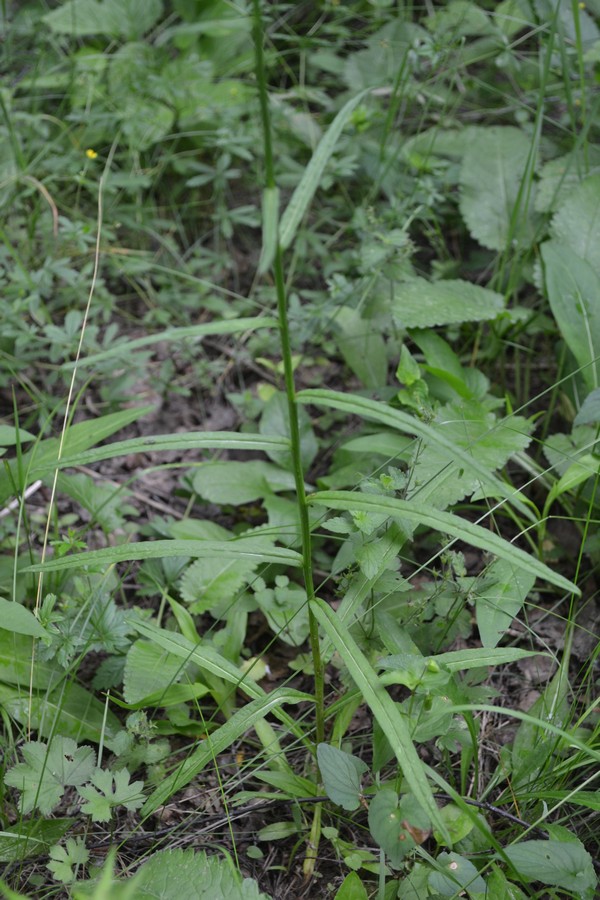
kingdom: Plantae
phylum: Tracheophyta
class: Magnoliopsida
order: Asterales
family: Campanulaceae
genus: Campanula
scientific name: Campanula persicifolia
